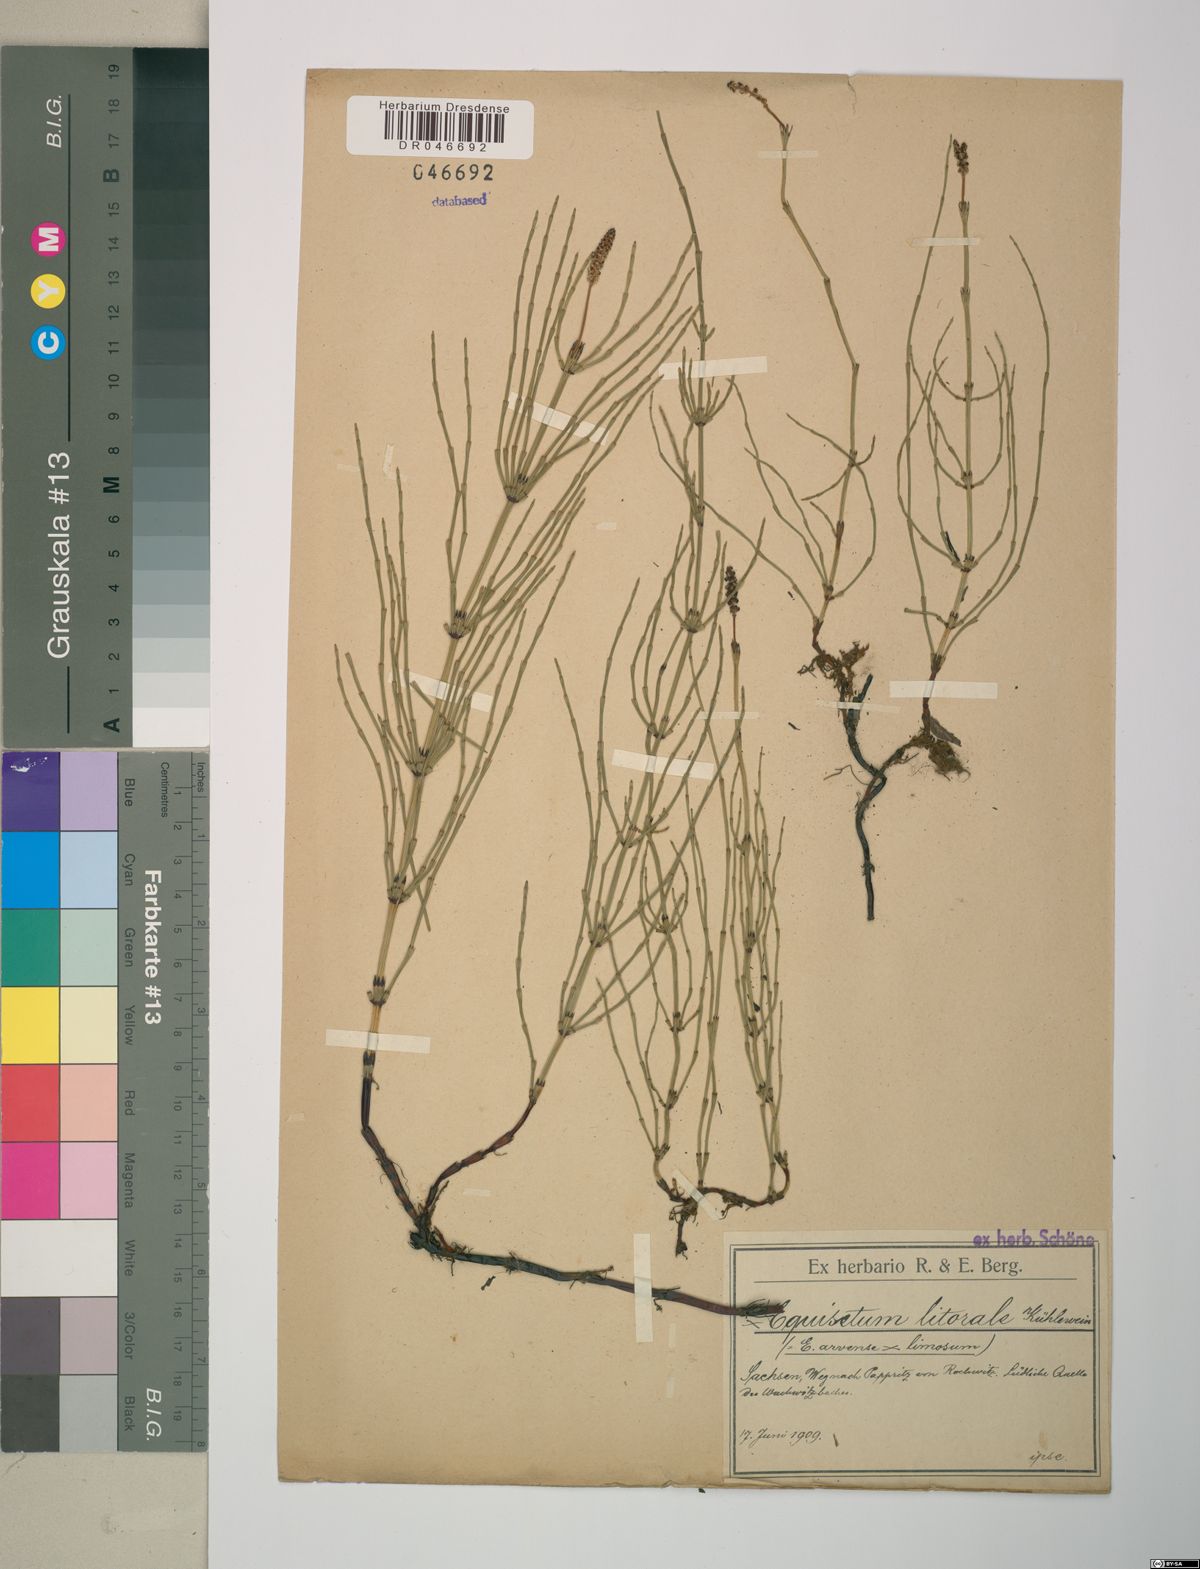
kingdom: Plantae
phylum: Tracheophyta
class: Polypodiopsida
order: Equisetales
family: Equisetaceae
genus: Equisetum
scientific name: Equisetum litorale
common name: Littoral horsetail
